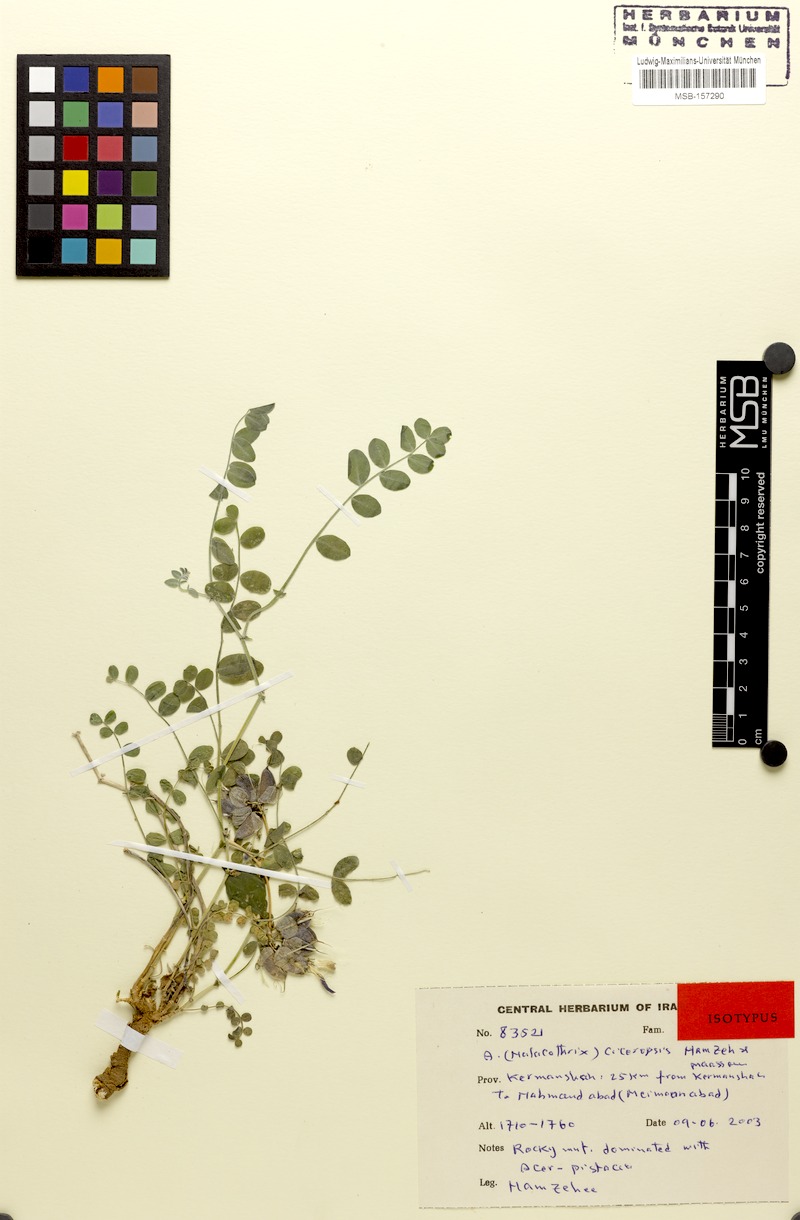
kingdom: Plantae
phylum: Tracheophyta
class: Magnoliopsida
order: Fabales
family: Fabaceae
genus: Astragalus
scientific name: Astragalus ciceropsis
